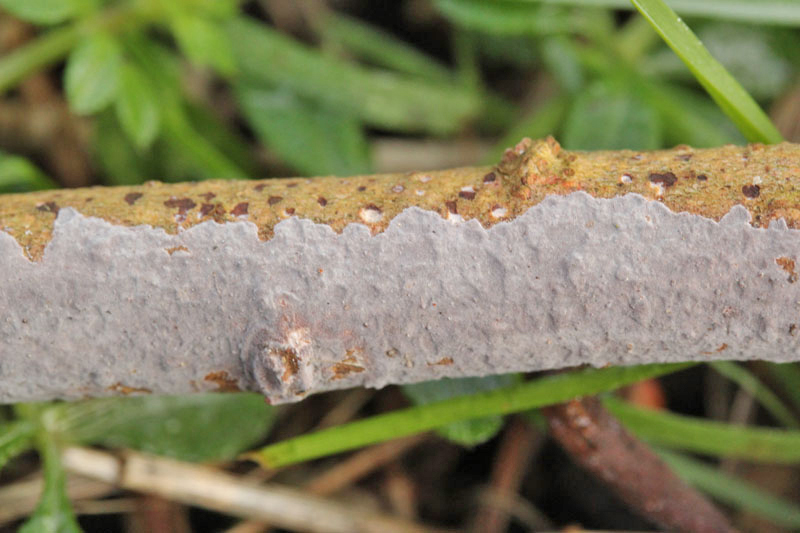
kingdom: Fungi
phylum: Basidiomycota
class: Agaricomycetes
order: Russulales
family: Peniophoraceae
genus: Peniophora
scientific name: Peniophora lycii
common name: grynet voksskind
